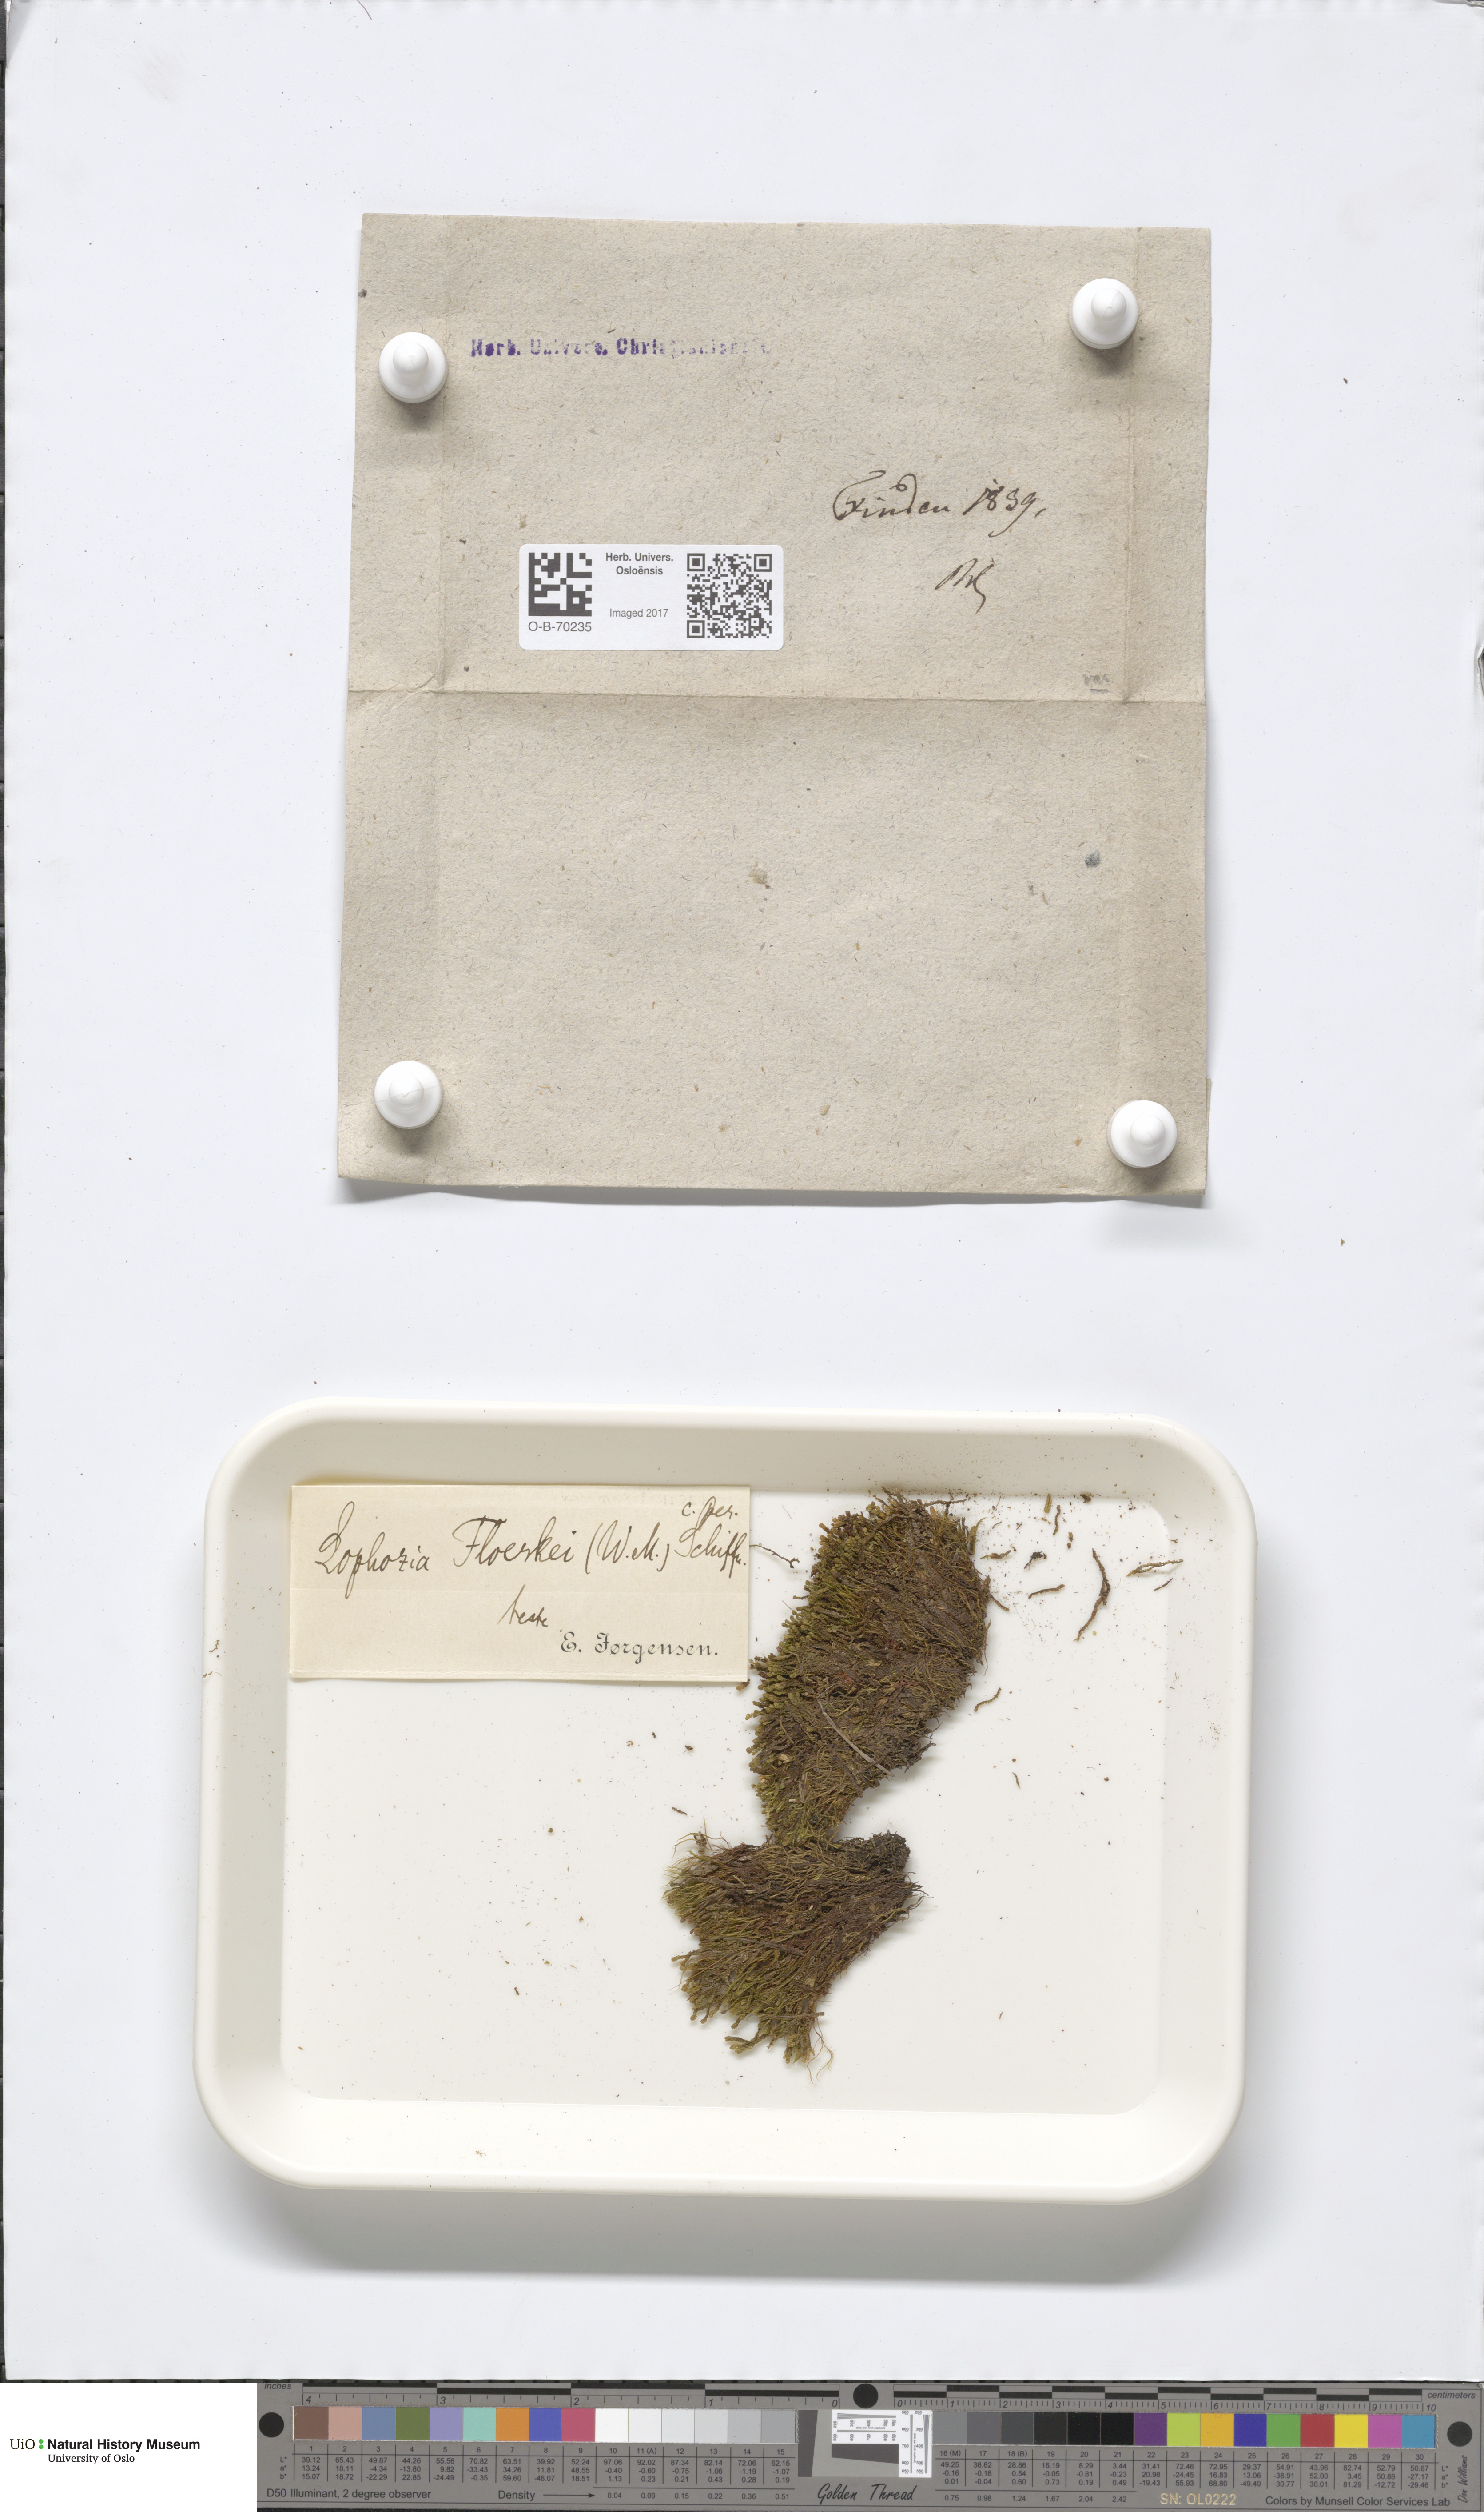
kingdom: Plantae
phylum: Marchantiophyta
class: Jungermanniopsida
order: Jungermanniales
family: Anastrophyllaceae
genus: Neoorthocaulis
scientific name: Neoorthocaulis floerkei
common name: Floerke's barbilophozia
